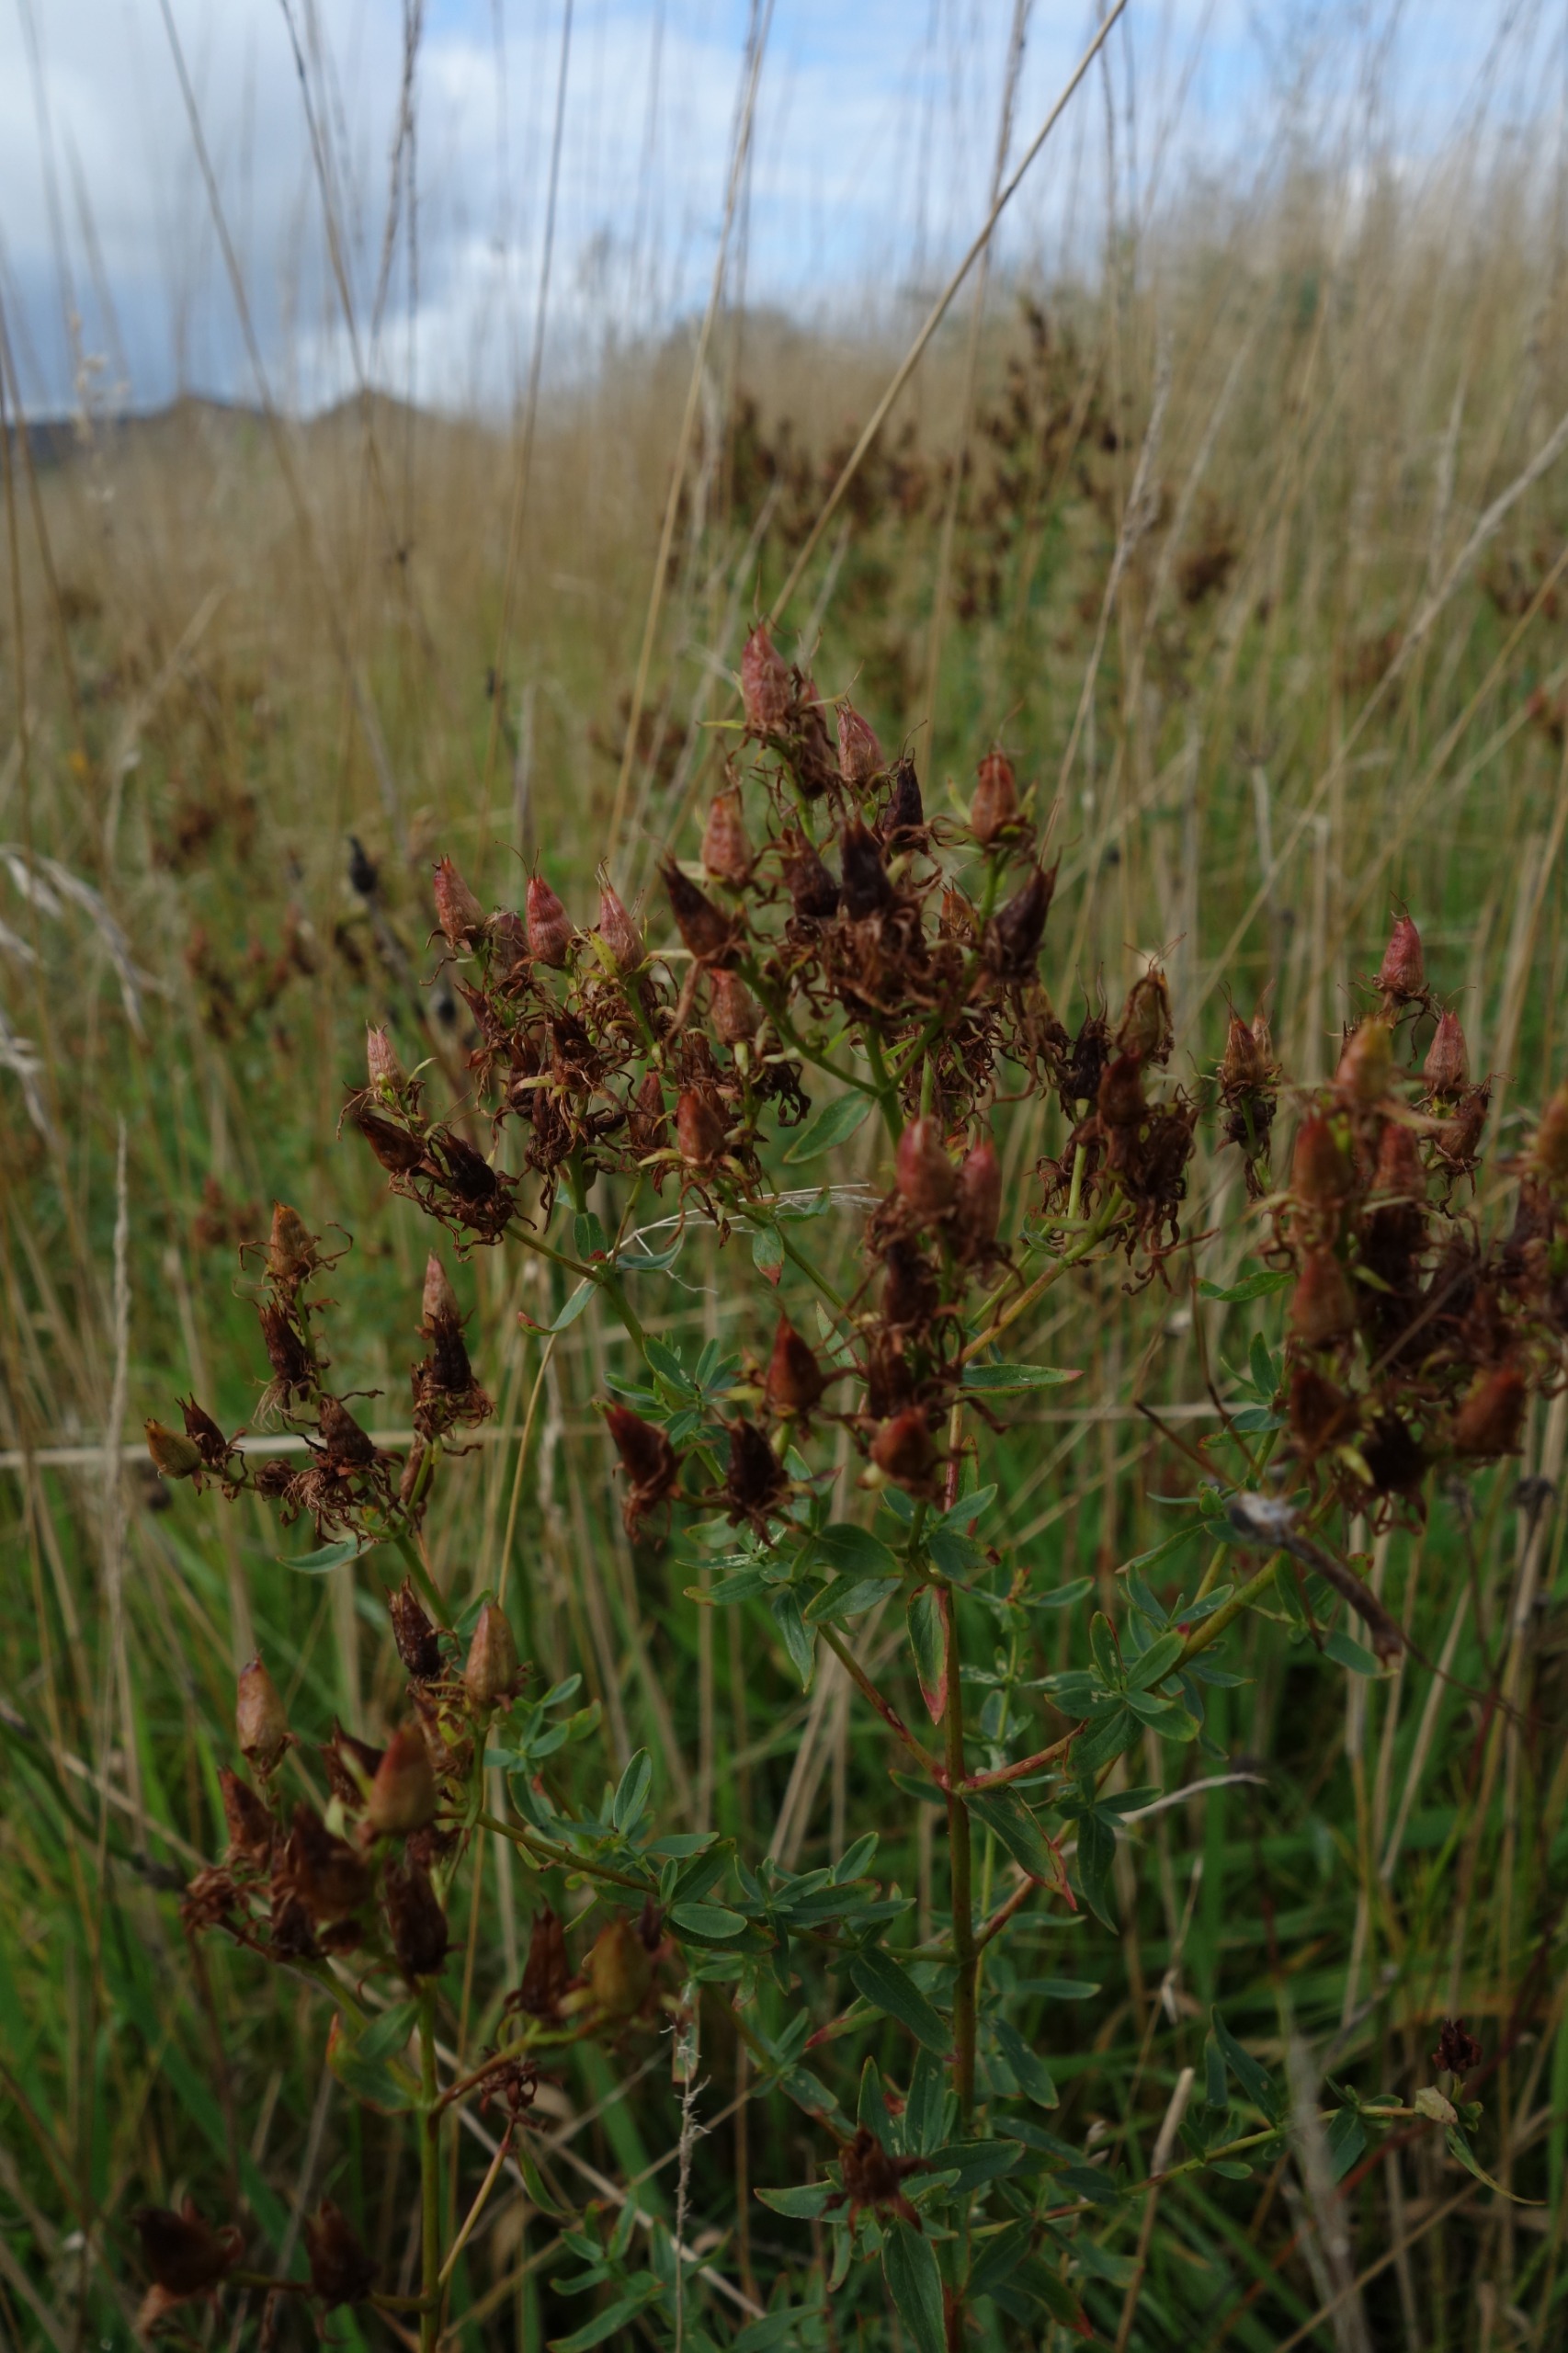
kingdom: Plantae
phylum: Tracheophyta
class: Magnoliopsida
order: Malpighiales
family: Hypericaceae
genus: Hypericum
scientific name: Hypericum perforatum
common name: Prikbladet perikon
